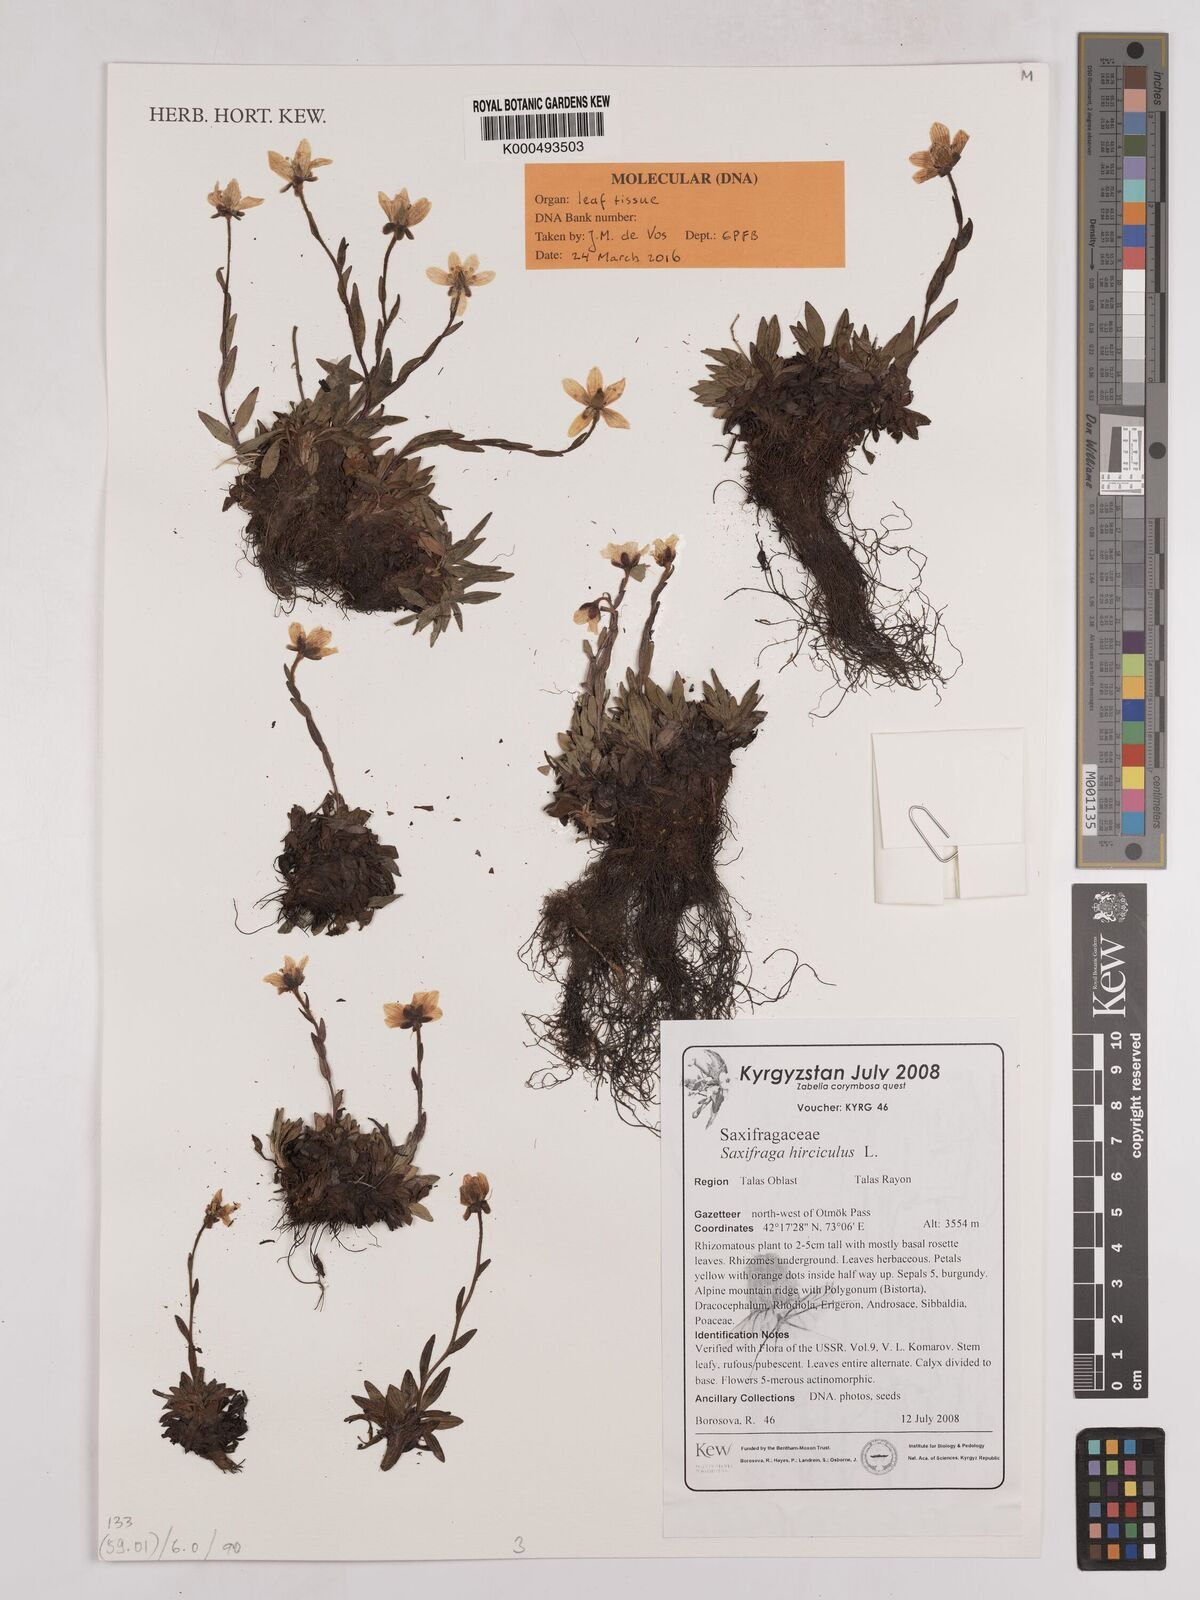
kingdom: Plantae
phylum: Tracheophyta
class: Magnoliopsida
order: Saxifragales
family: Saxifragaceae
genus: Saxifraga
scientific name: Saxifraga hirculus
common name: Yellow marsh saxifrage
